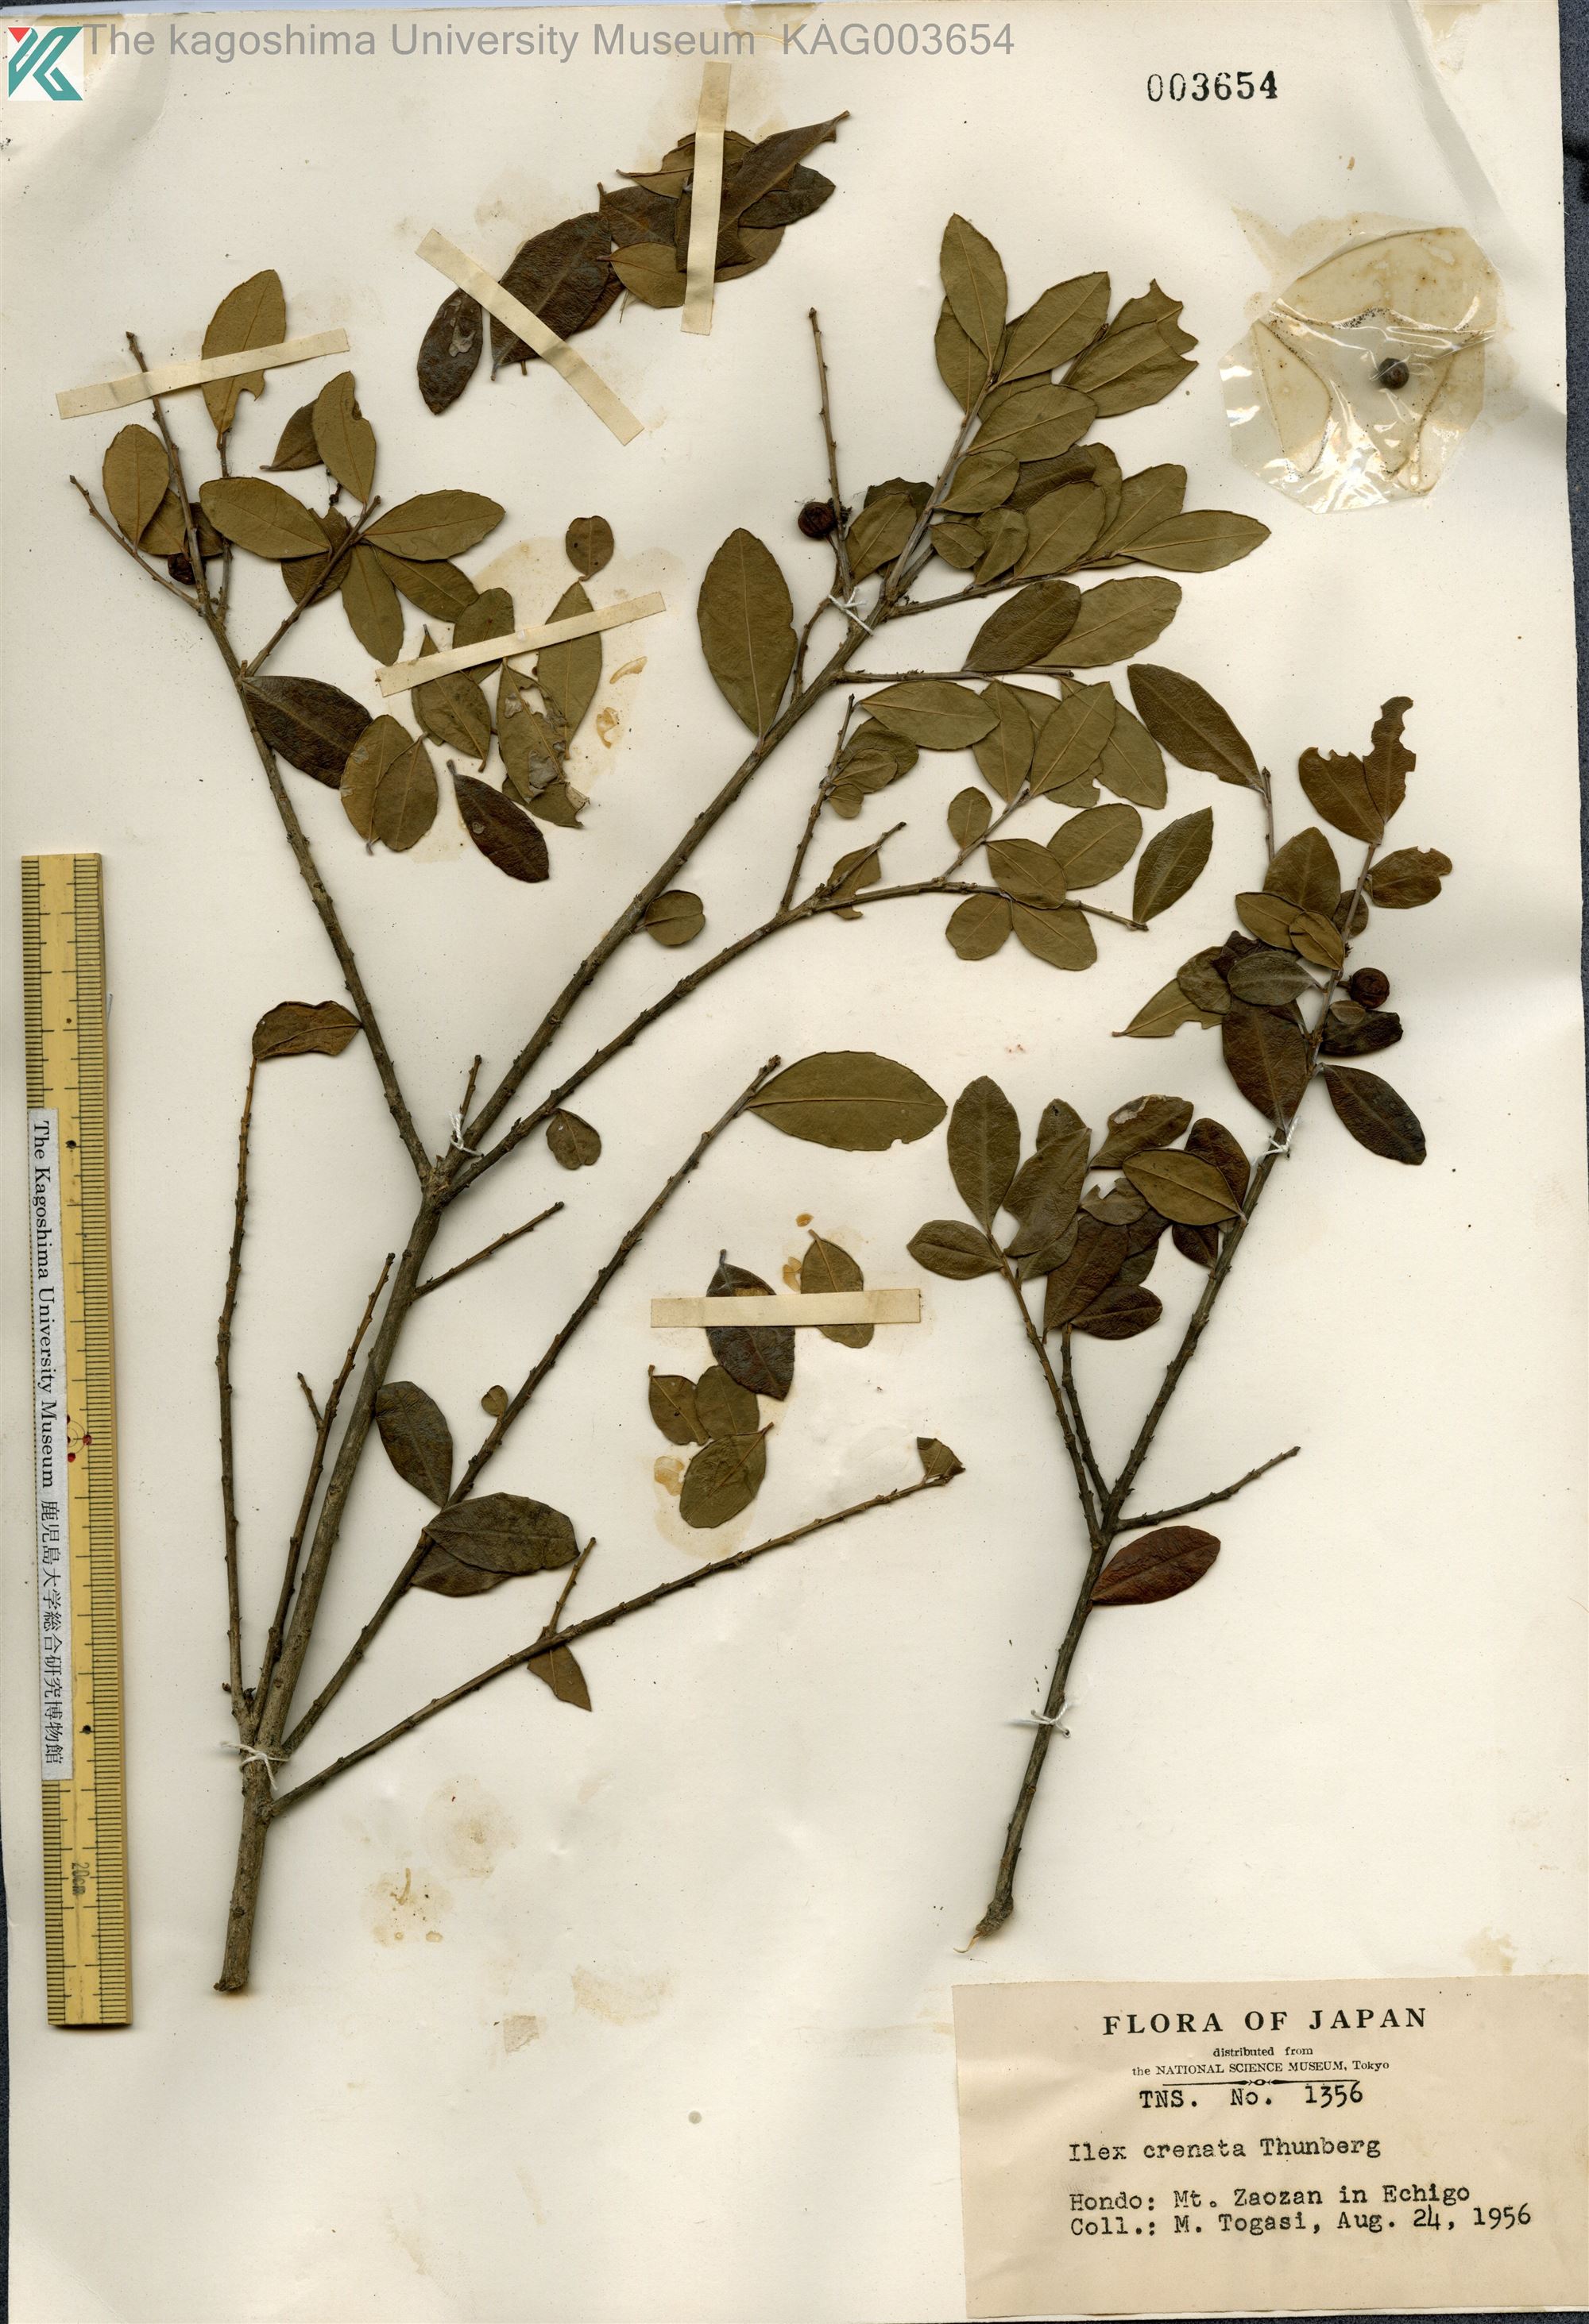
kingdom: Plantae
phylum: Tracheophyta
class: Magnoliopsida
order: Aquifoliales
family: Aquifoliaceae
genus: Ilex
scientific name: Ilex crenata
